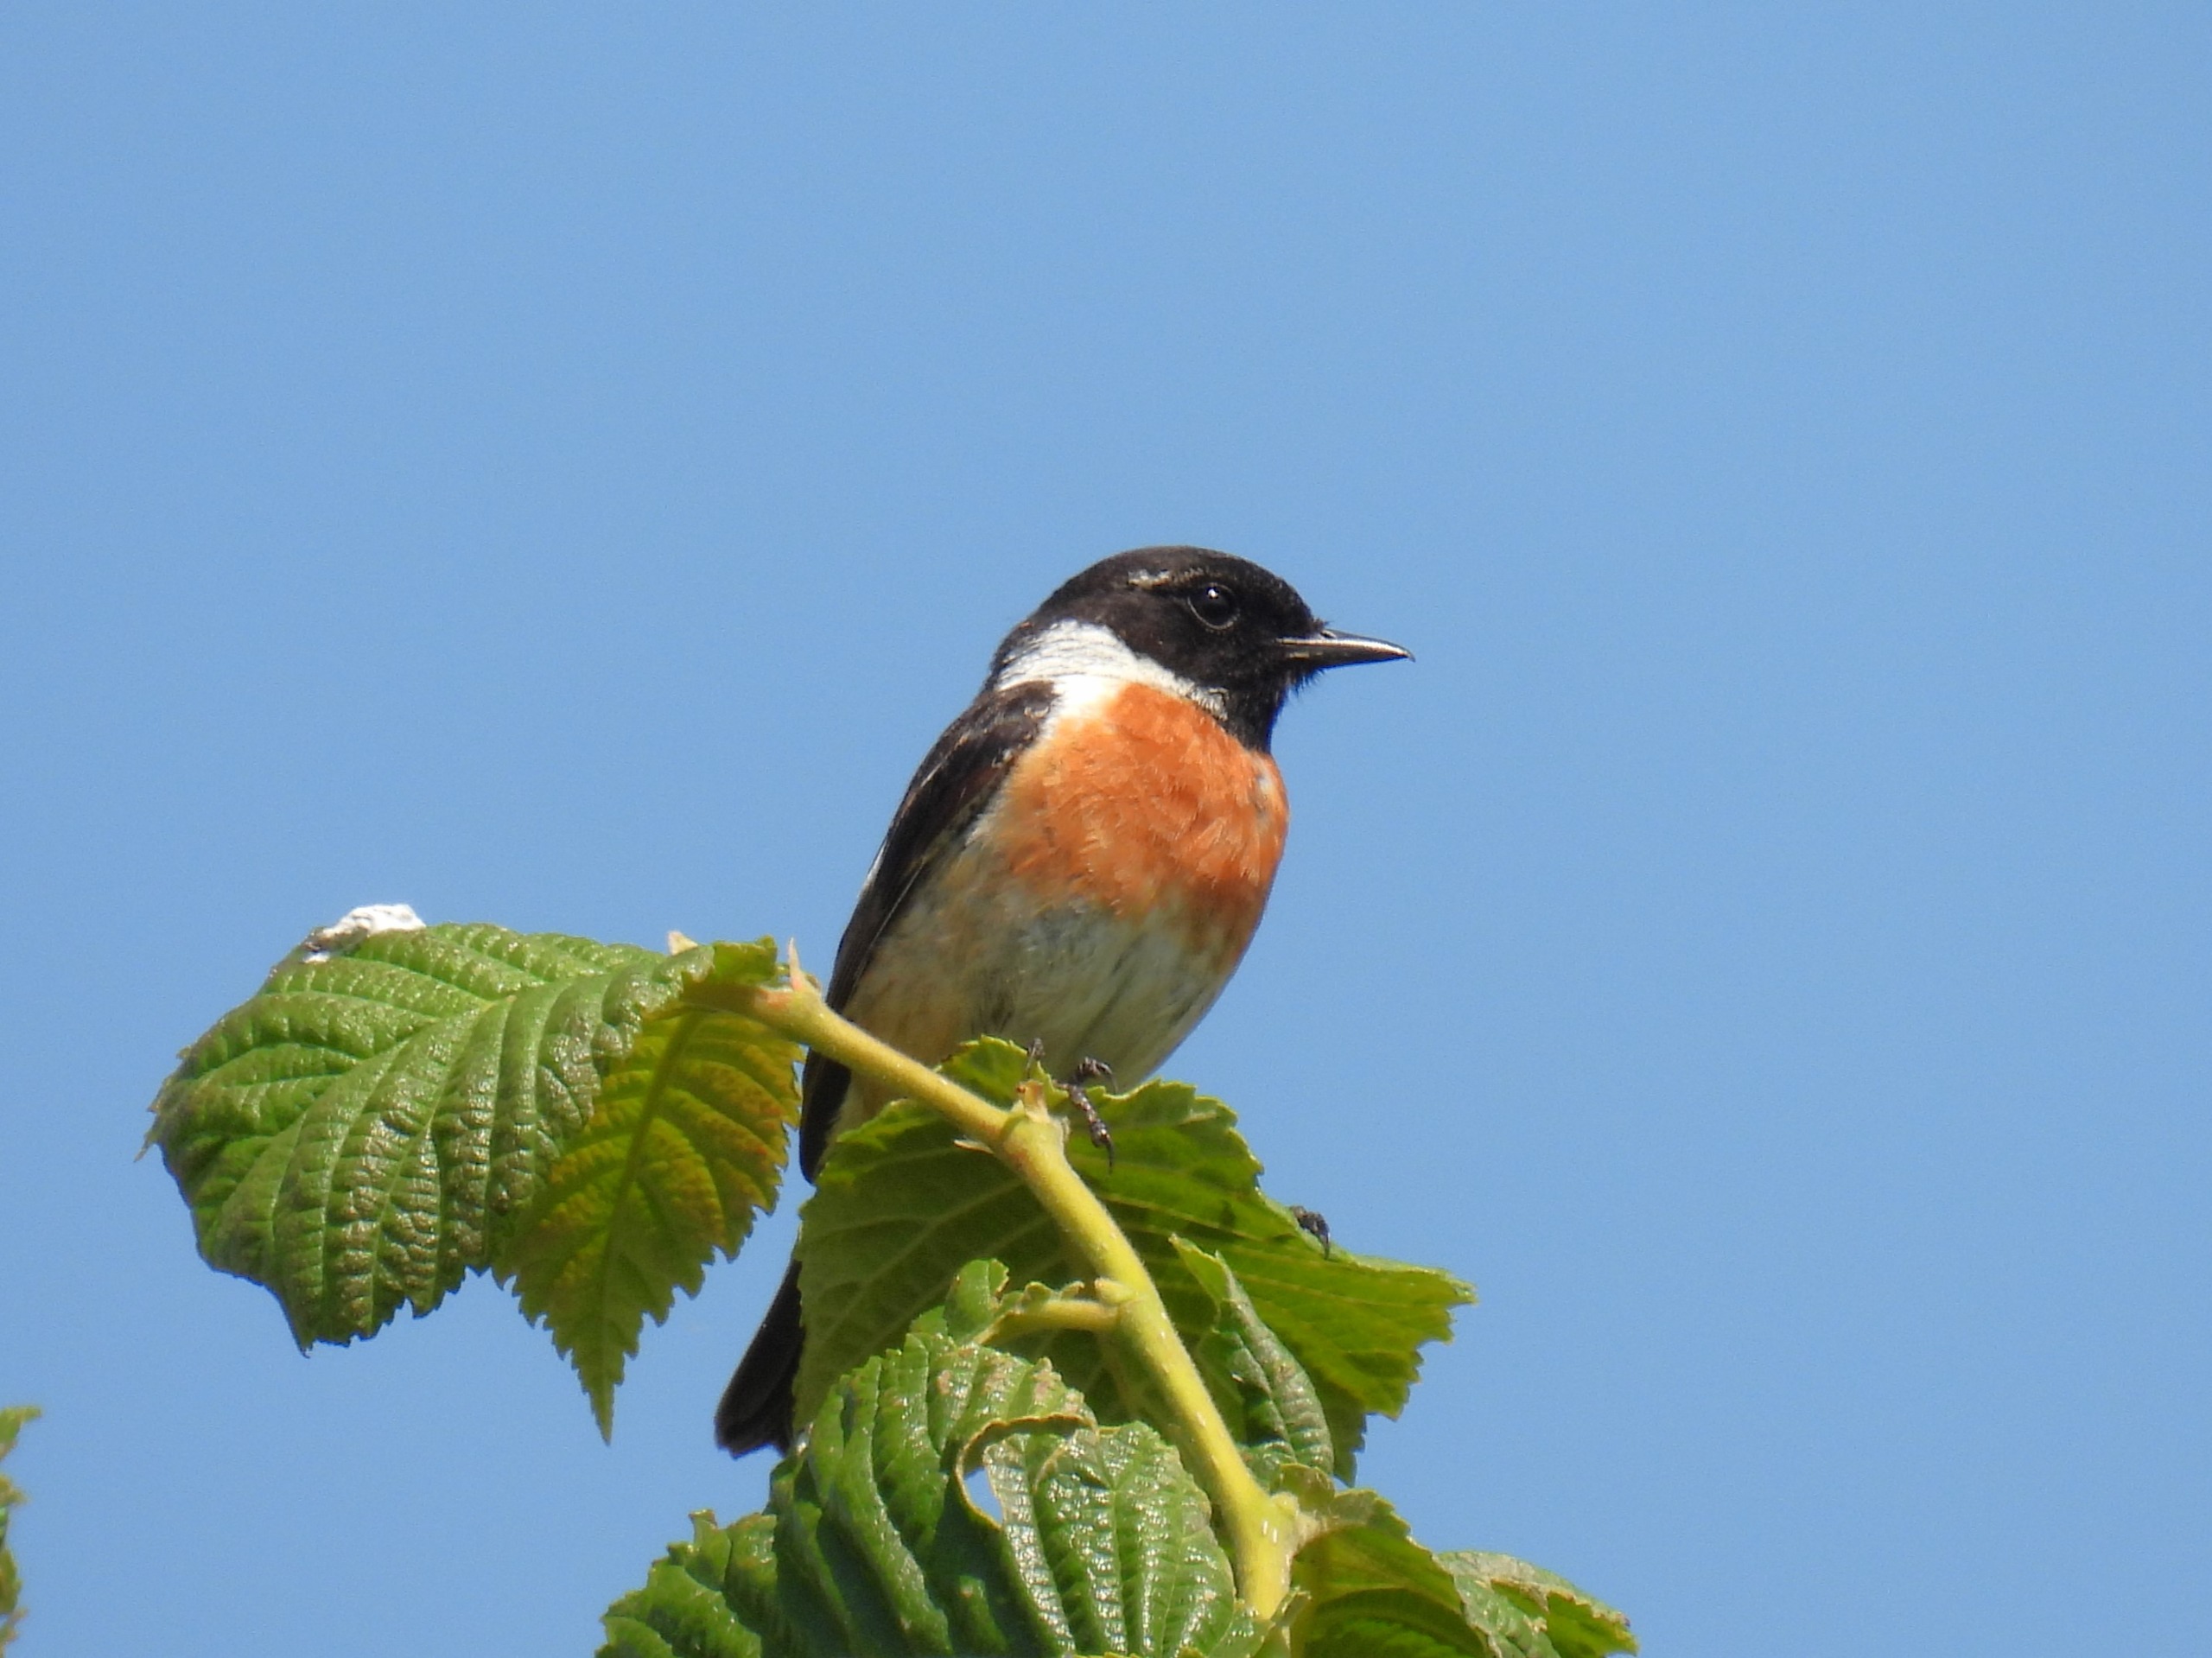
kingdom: Animalia
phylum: Chordata
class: Aves
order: Passeriformes
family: Muscicapidae
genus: Saxicola
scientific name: Saxicola rubicola
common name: Sortstrubet bynkefugl
